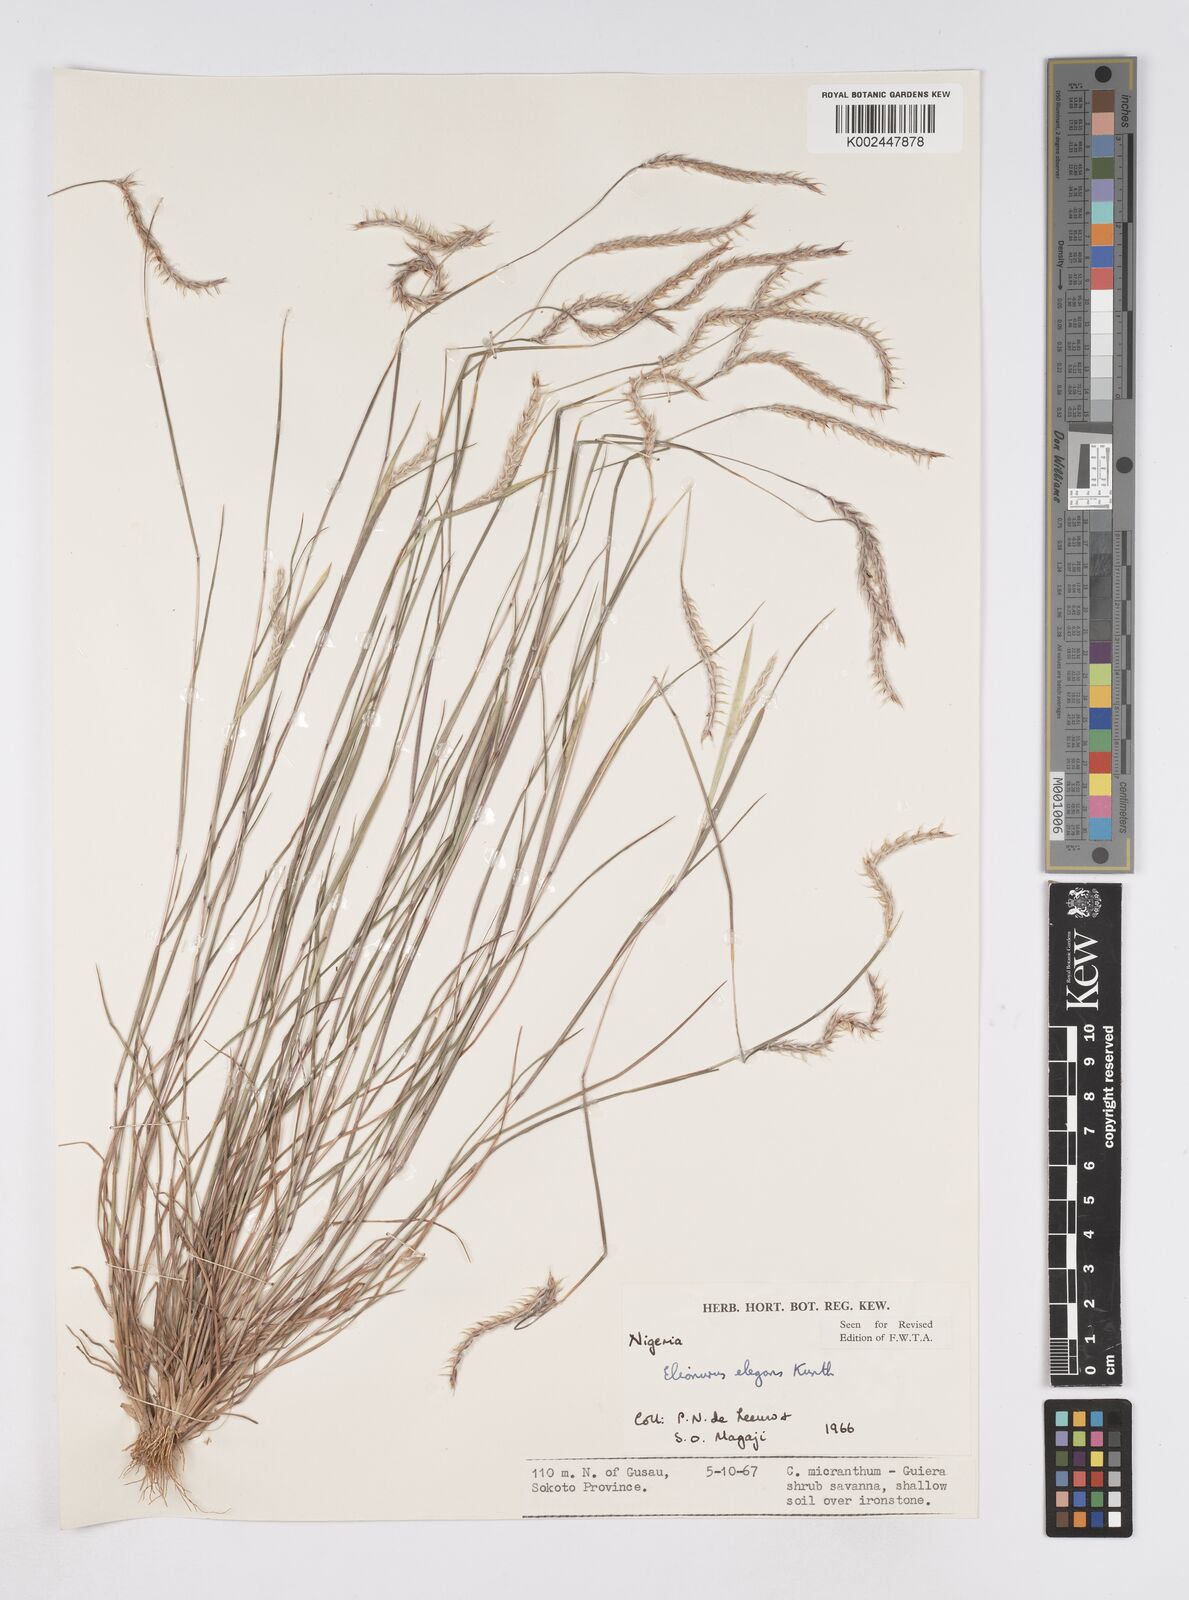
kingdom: Plantae
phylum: Tracheophyta
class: Liliopsida
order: Poales
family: Poaceae
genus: Elionurus
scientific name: Elionurus elegans
